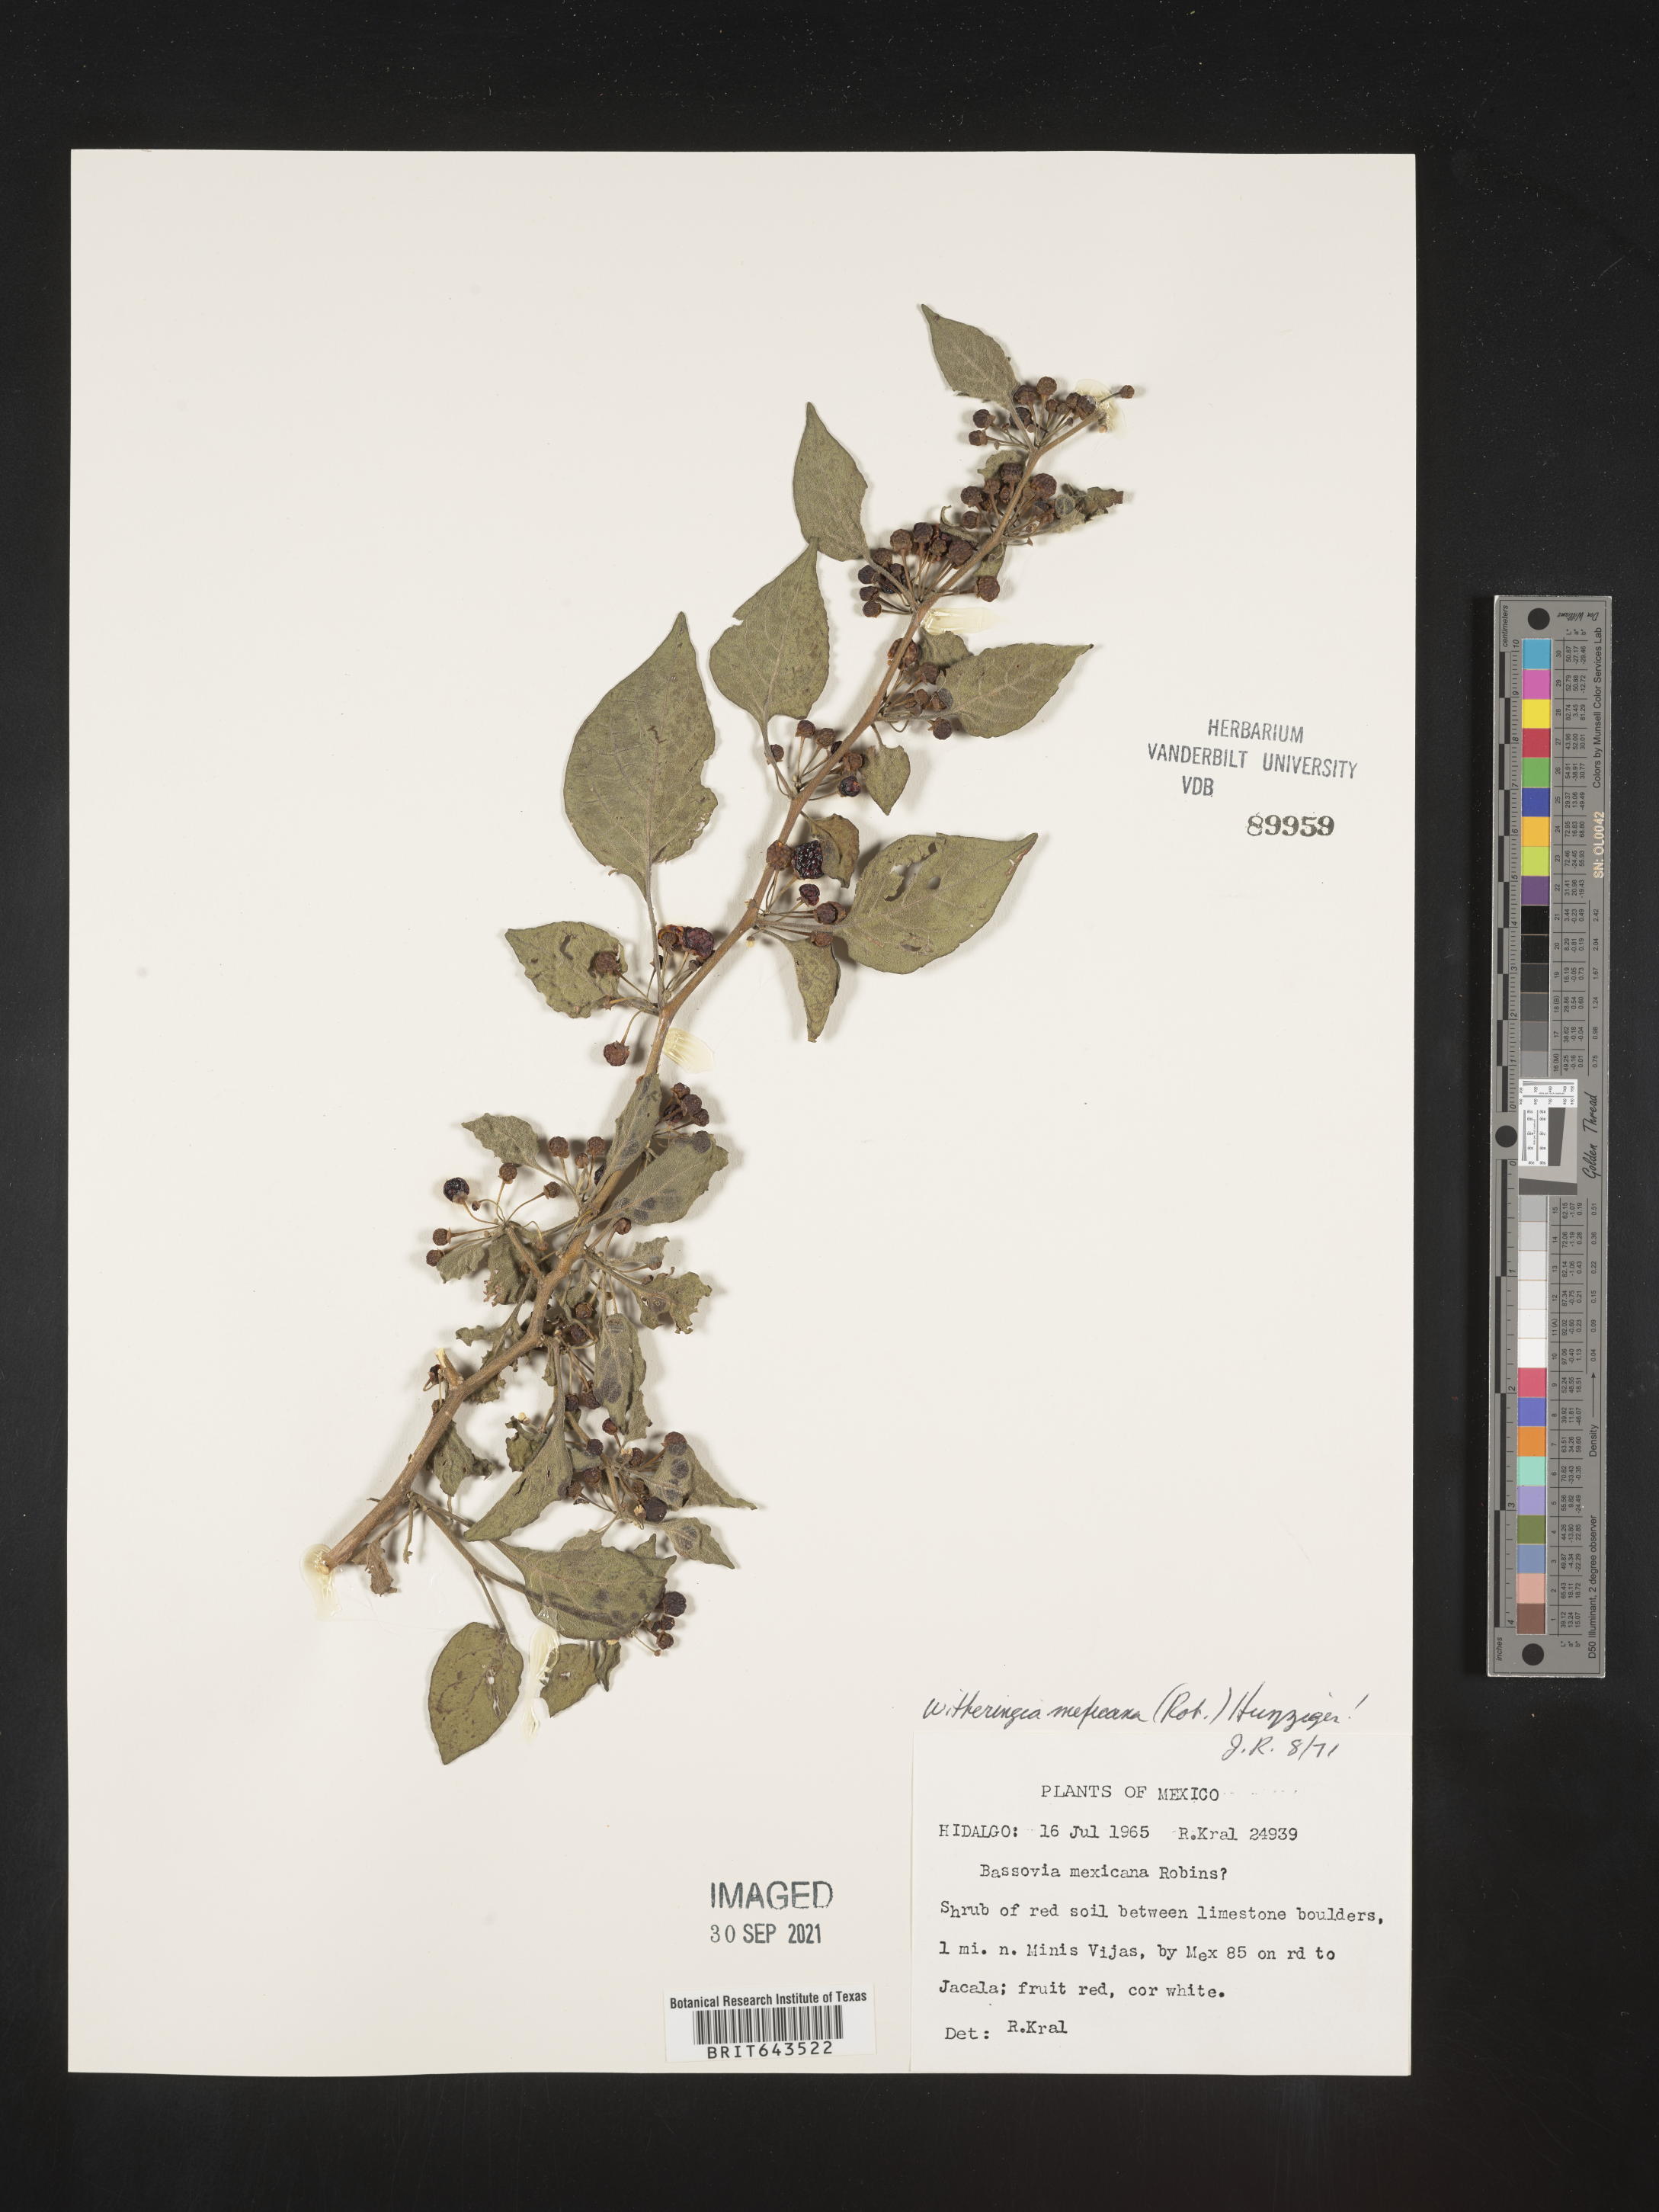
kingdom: Plantae
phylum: Tracheophyta
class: Magnoliopsida
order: Solanales
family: Solanaceae
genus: Witheringia
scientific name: Witheringia
